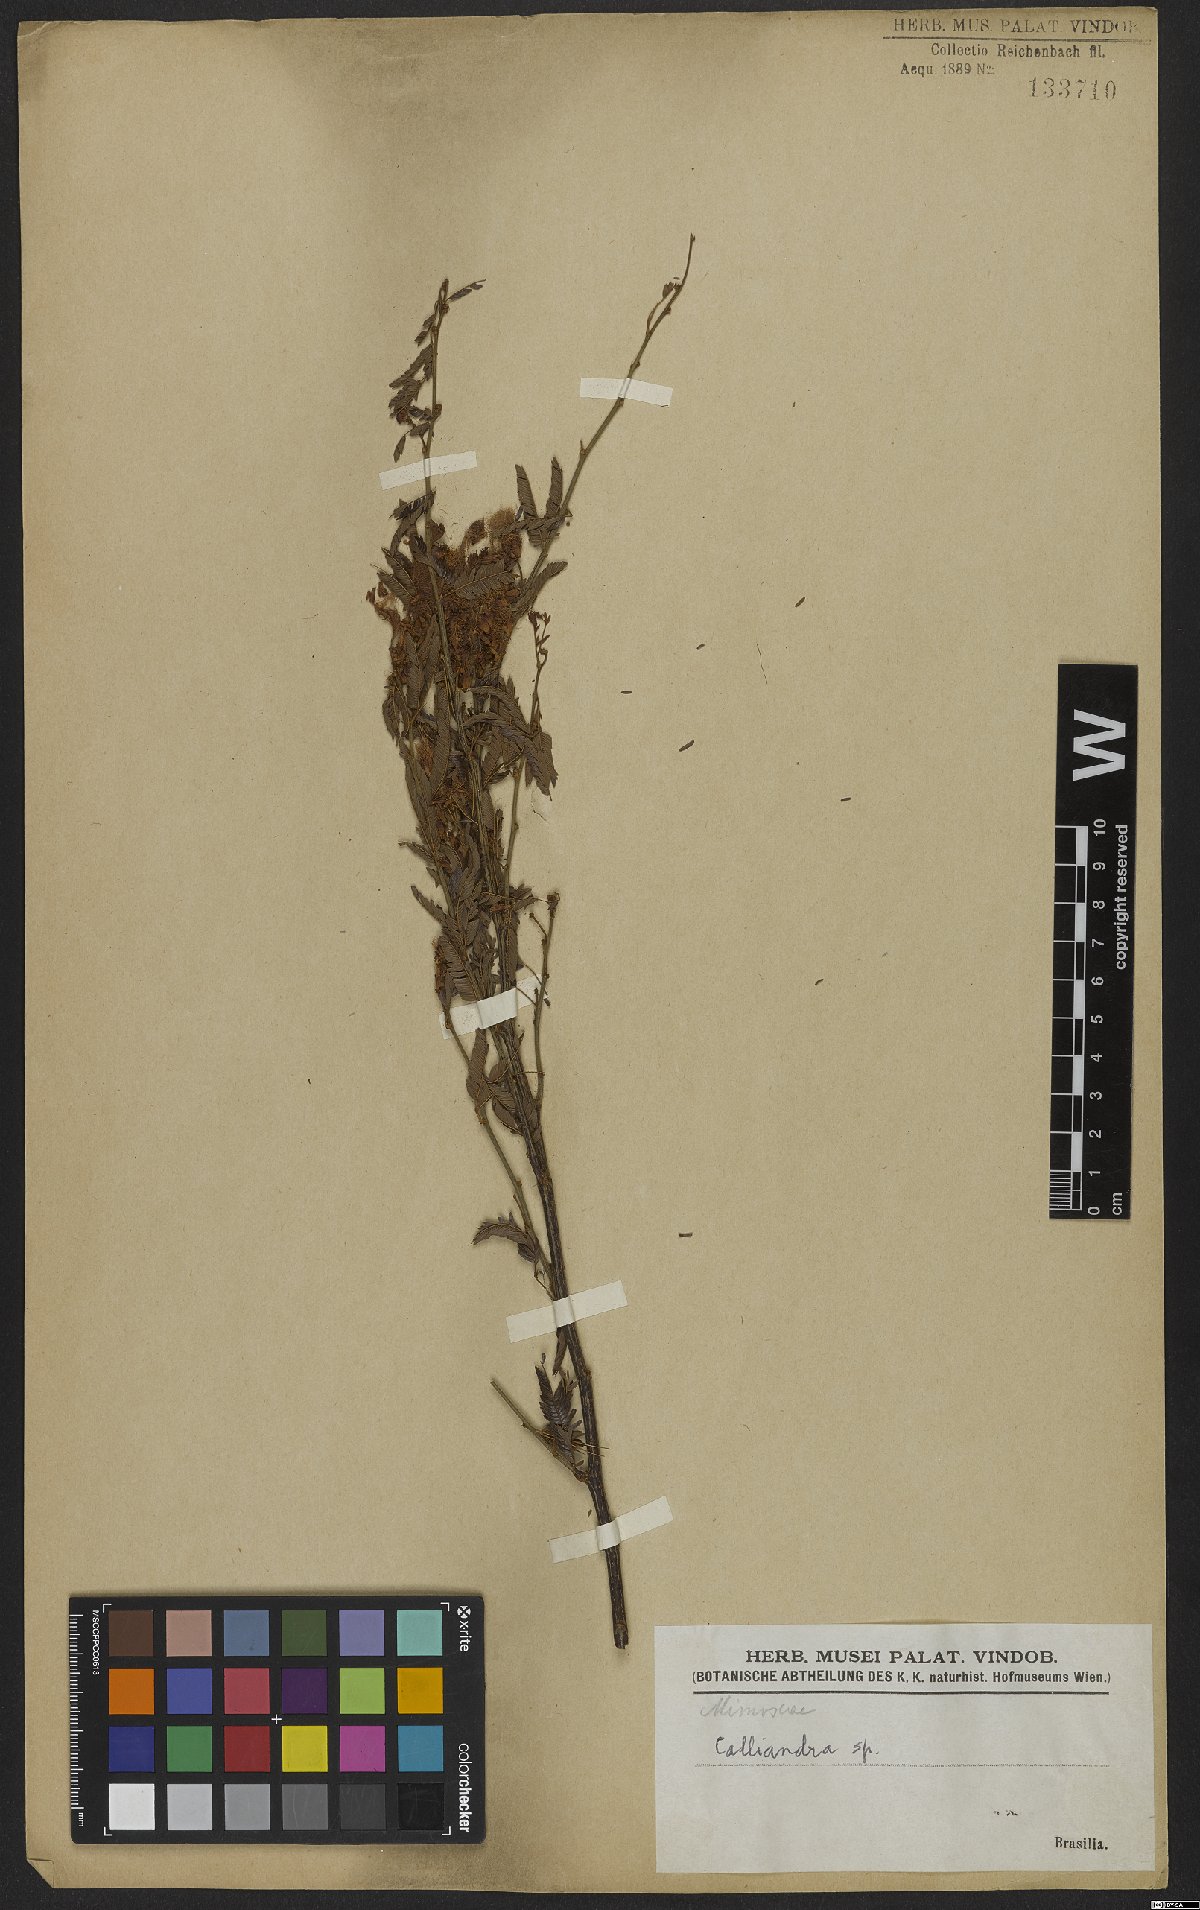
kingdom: Plantae
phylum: Tracheophyta
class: Magnoliopsida
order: Fabales
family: Fabaceae
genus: Calliandra
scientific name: Calliandra
